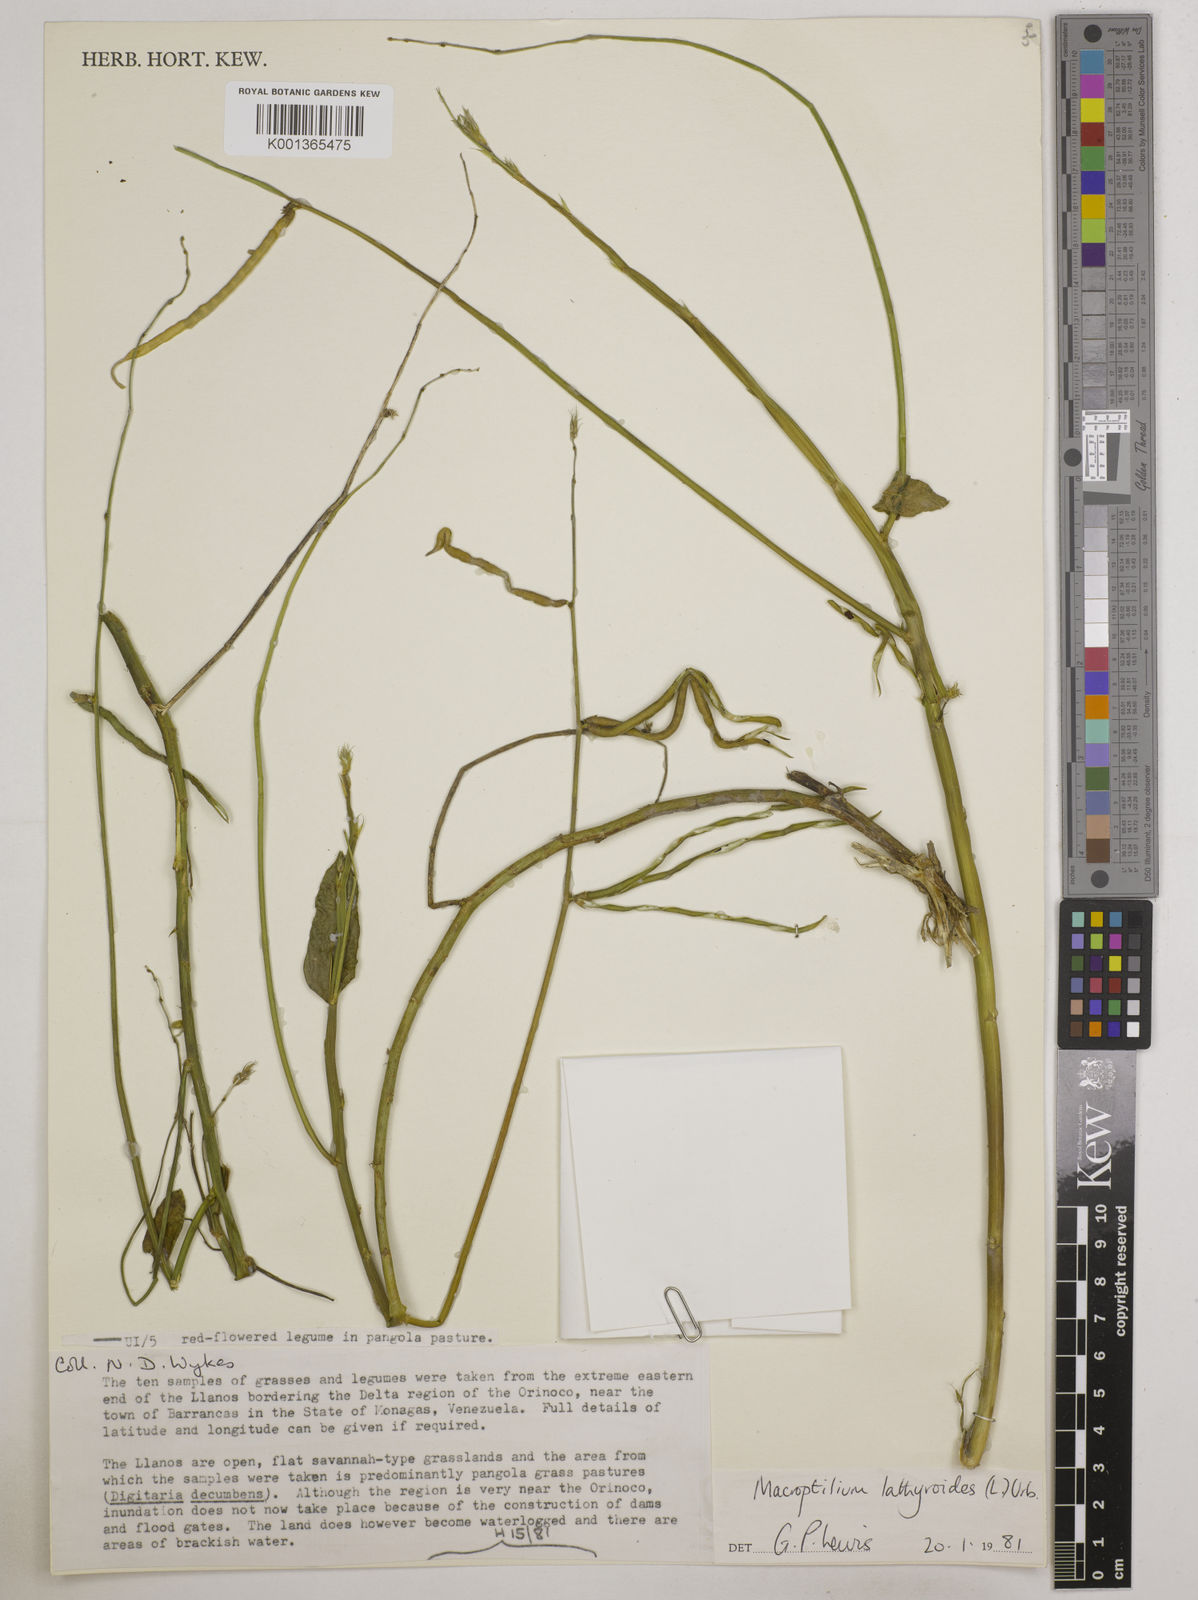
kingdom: Plantae
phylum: Tracheophyta
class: Magnoliopsida
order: Fabales
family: Fabaceae
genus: Macroptilium
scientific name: Macroptilium lathyroides
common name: Wild bushbean
